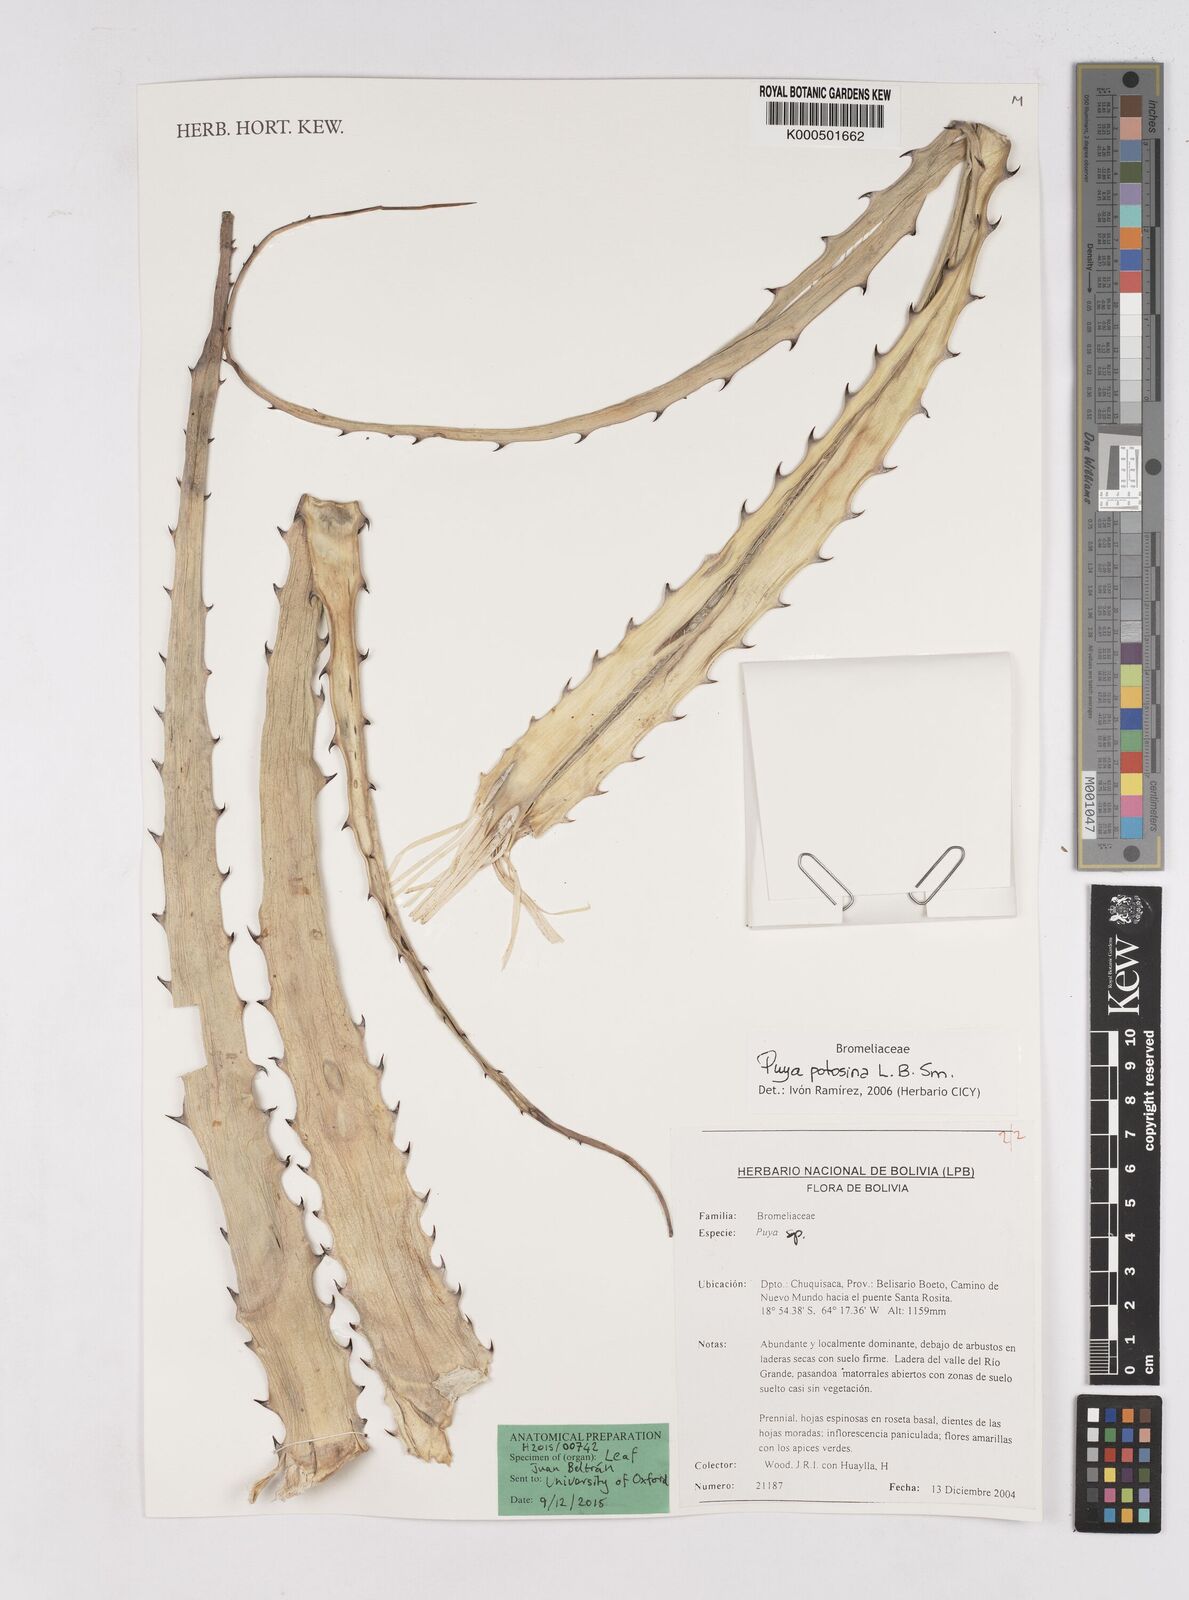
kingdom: Plantae
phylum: Tracheophyta
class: Liliopsida
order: Poales
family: Bromeliaceae
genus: Puya
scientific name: Puya potosina
